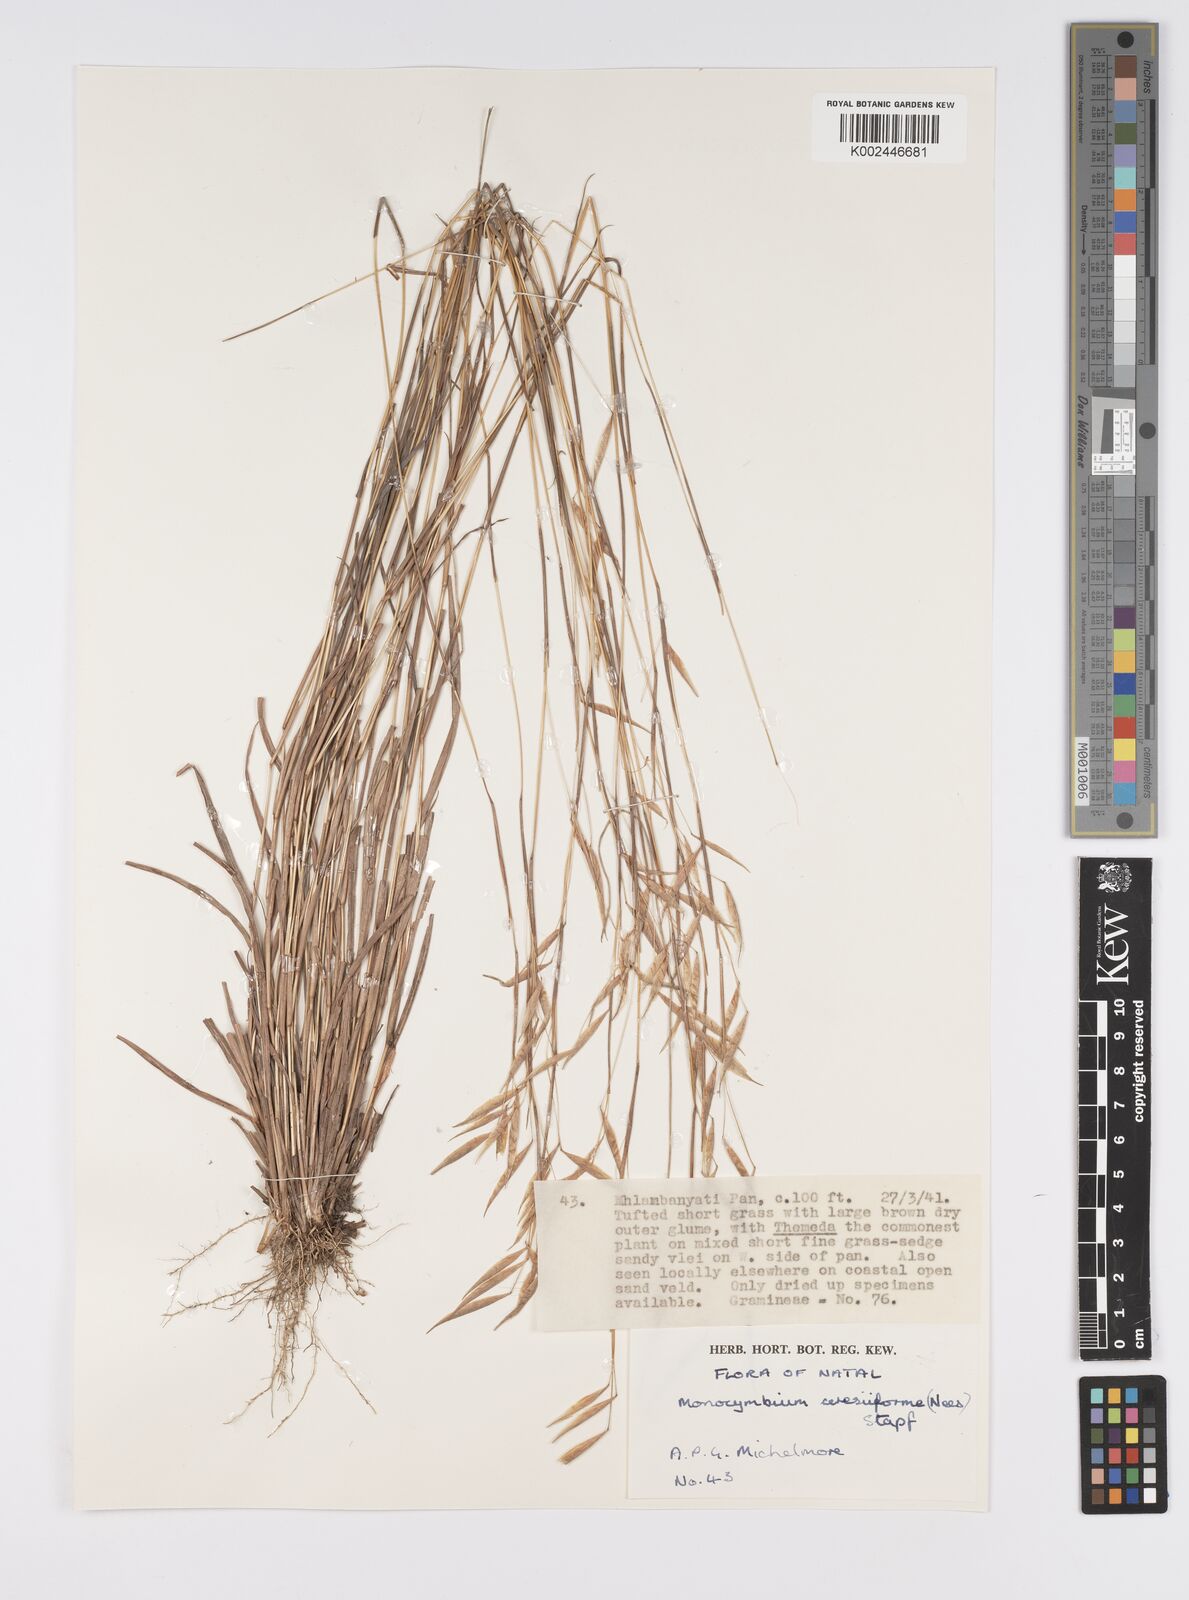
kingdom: Plantae
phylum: Tracheophyta
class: Liliopsida
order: Poales
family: Poaceae
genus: Monocymbium
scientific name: Monocymbium ceresiiforme
